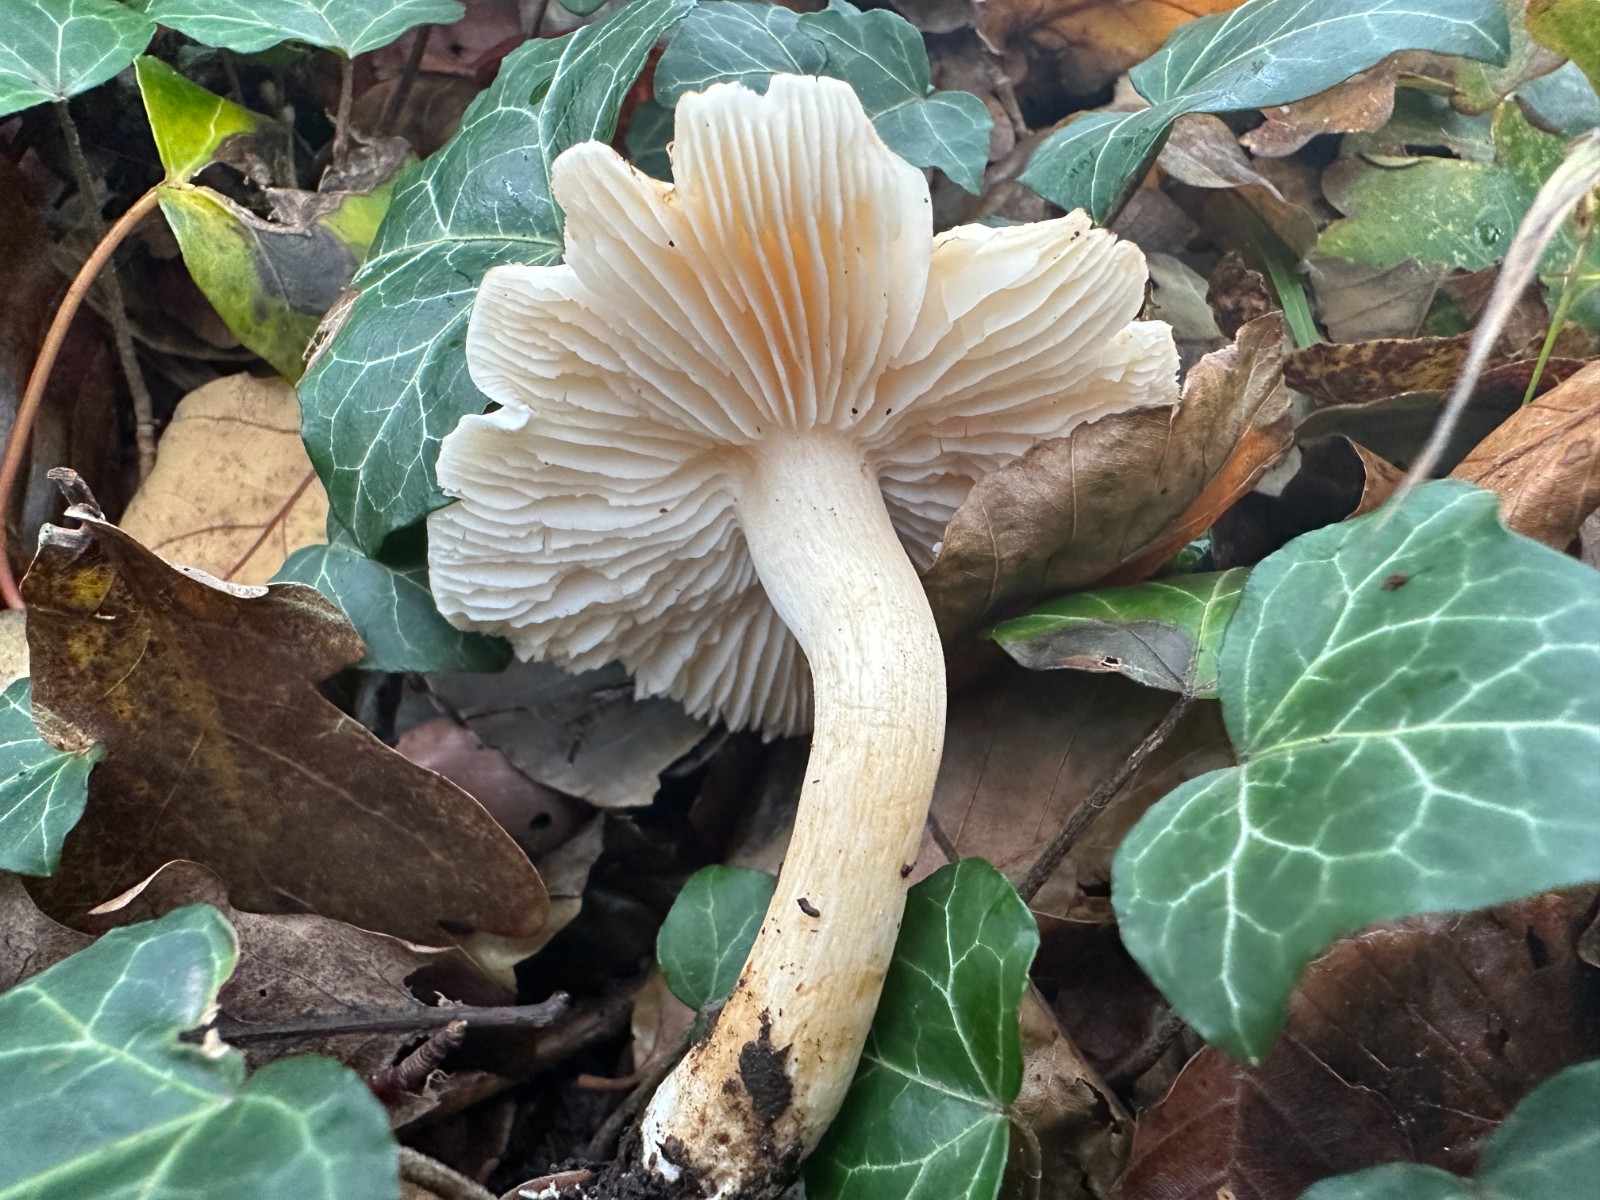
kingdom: Fungi
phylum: Basidiomycota
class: Agaricomycetes
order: Agaricales
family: Tricholomataceae
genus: Tricholoma
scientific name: Tricholoma lascivum
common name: stinkende ridderhat
